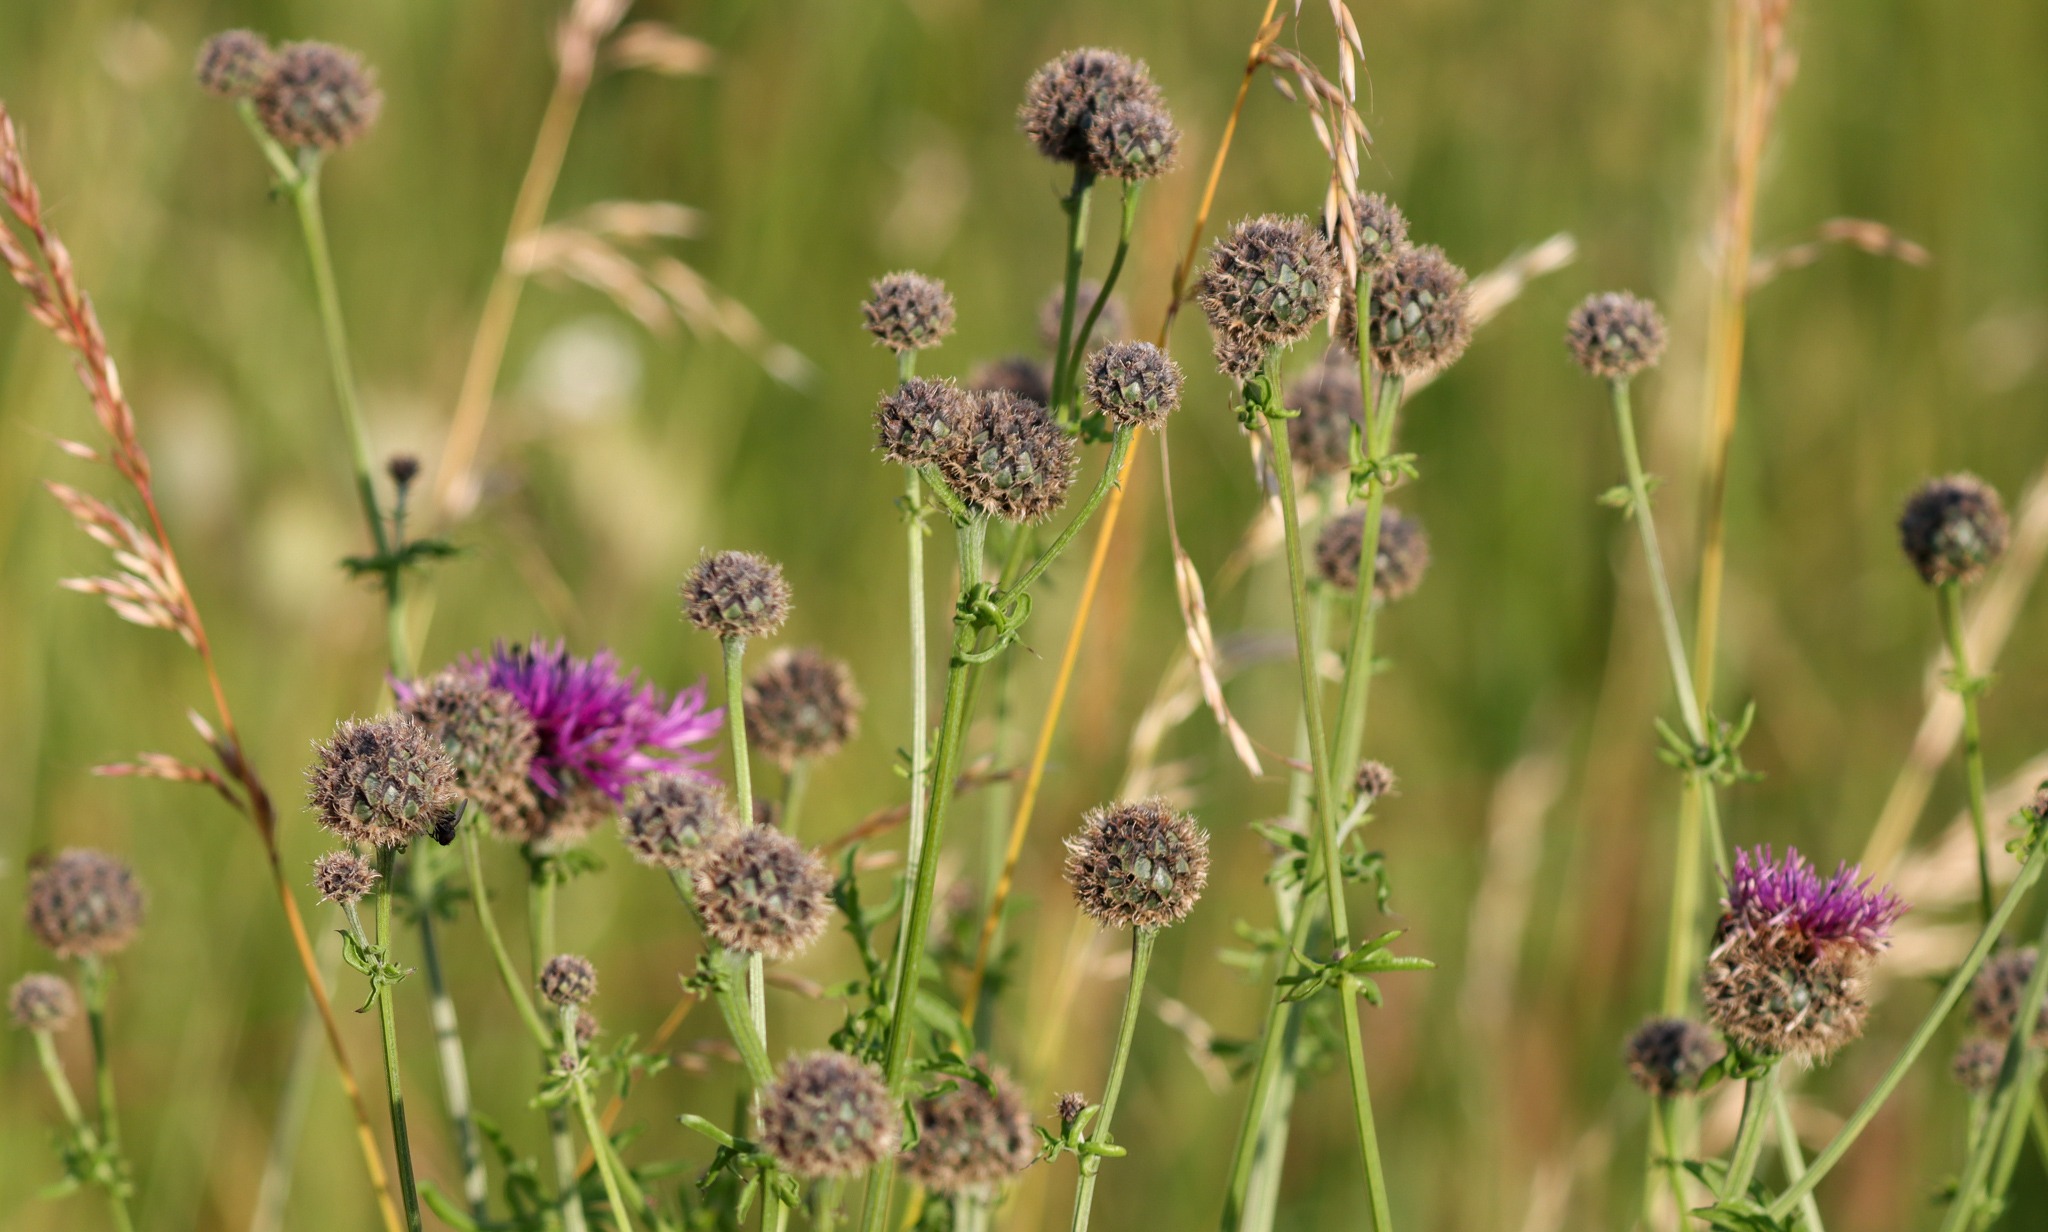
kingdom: Plantae
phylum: Tracheophyta
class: Magnoliopsida
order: Asterales
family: Asteraceae
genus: Centaurea
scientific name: Centaurea scabiosa
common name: Stor knopurt
